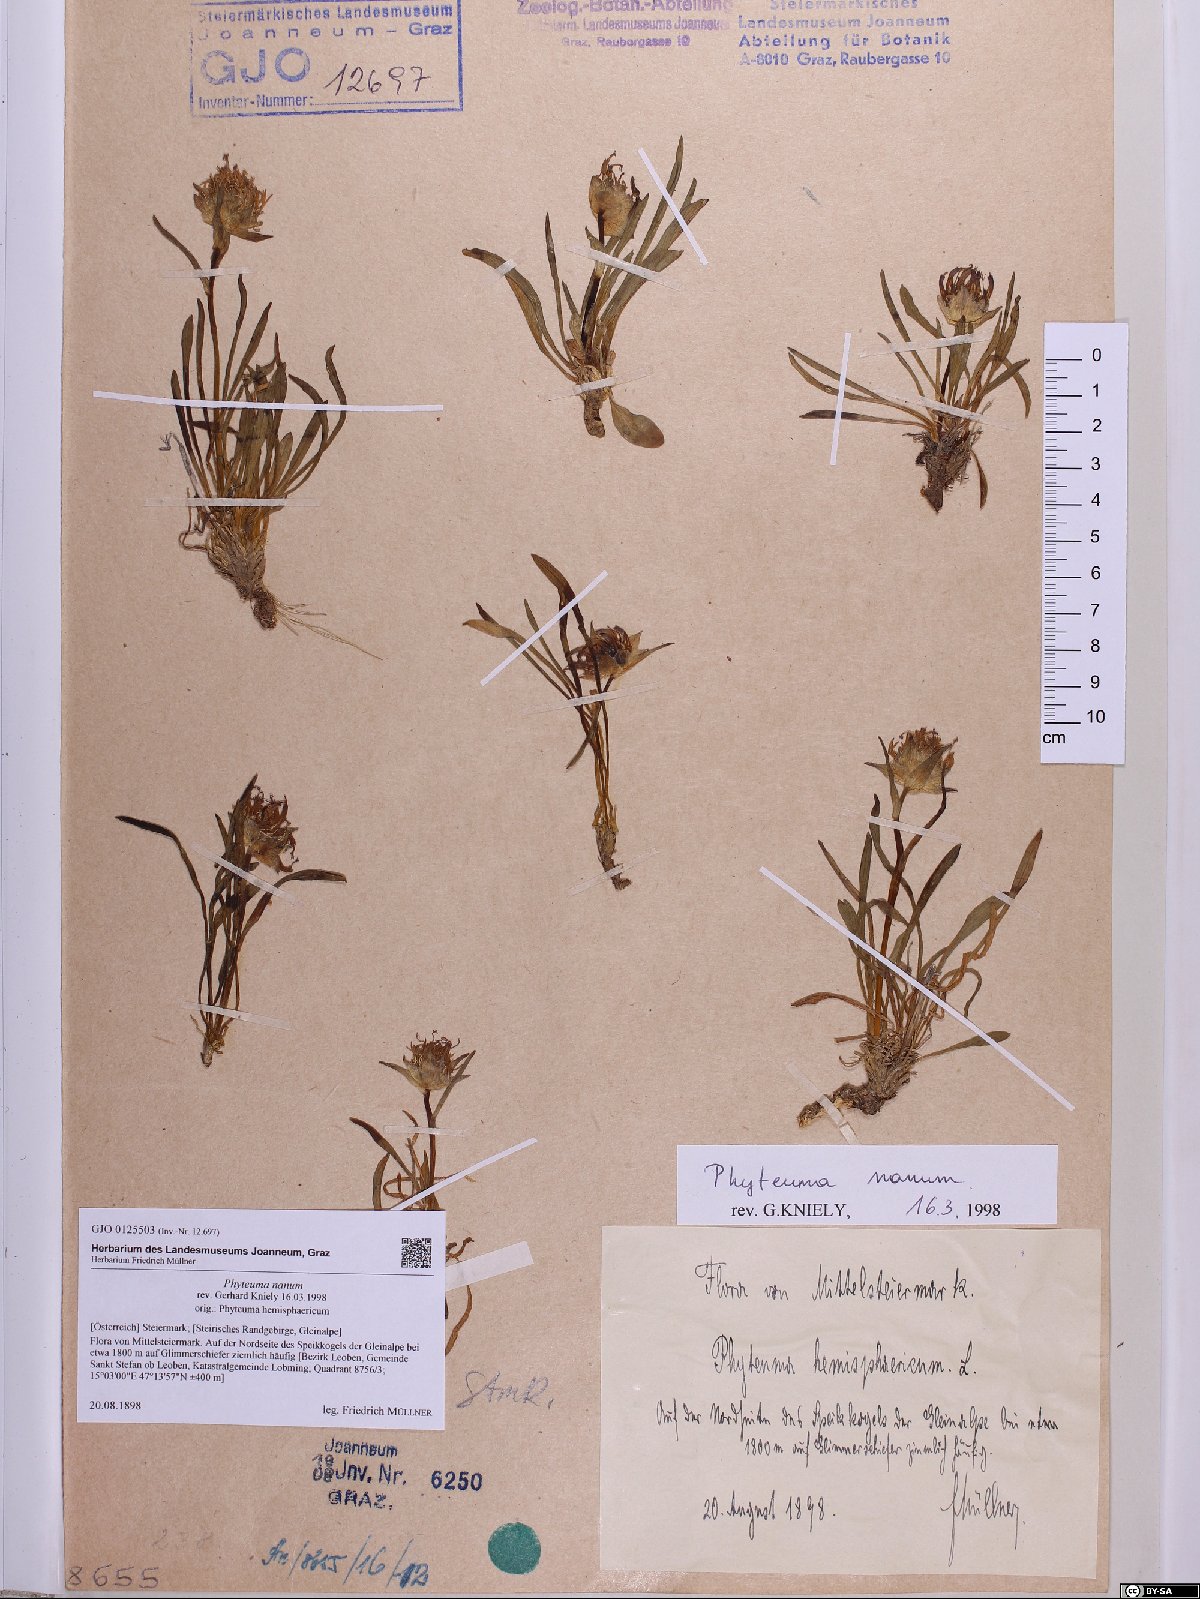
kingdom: Plantae
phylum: Tracheophyta
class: Magnoliopsida
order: Asterales
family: Campanulaceae
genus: Phyteuma
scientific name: Phyteuma globulariifolium
